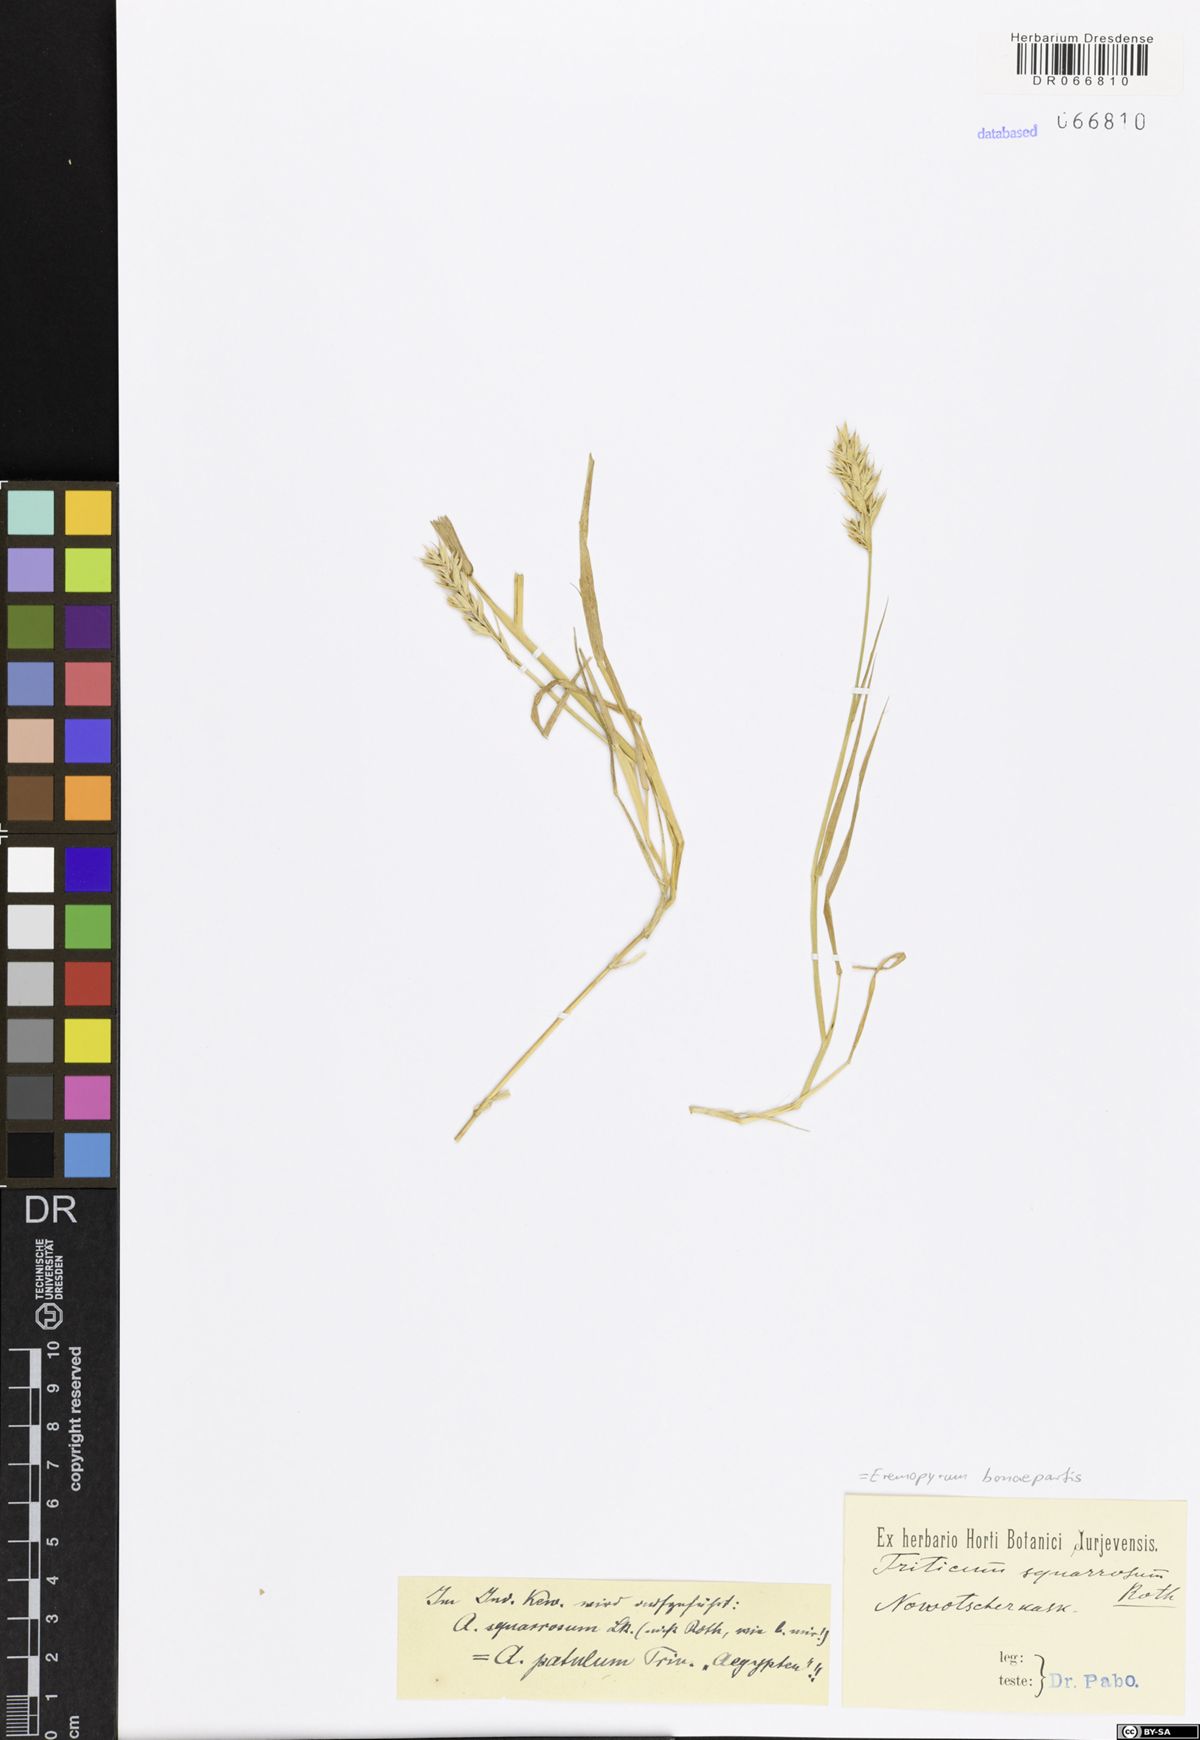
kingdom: Plantae
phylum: Tracheophyta
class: Liliopsida
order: Poales
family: Poaceae
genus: Eremopyrum
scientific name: Eremopyrum bonaepartis
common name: Tapertip false wheatgrass
